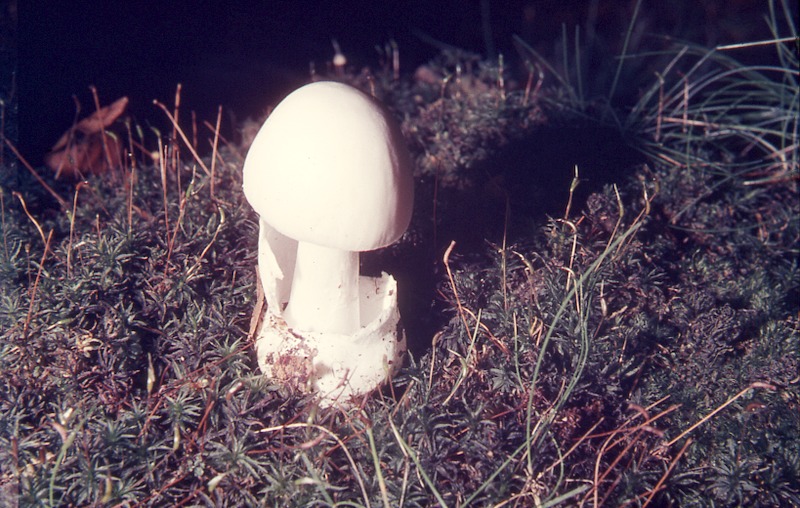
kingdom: Fungi
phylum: Basidiomycota
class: Agaricomycetes
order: Agaricales
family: Amanitaceae
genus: Amanita
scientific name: Amanita verna
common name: Fool's mushroom
